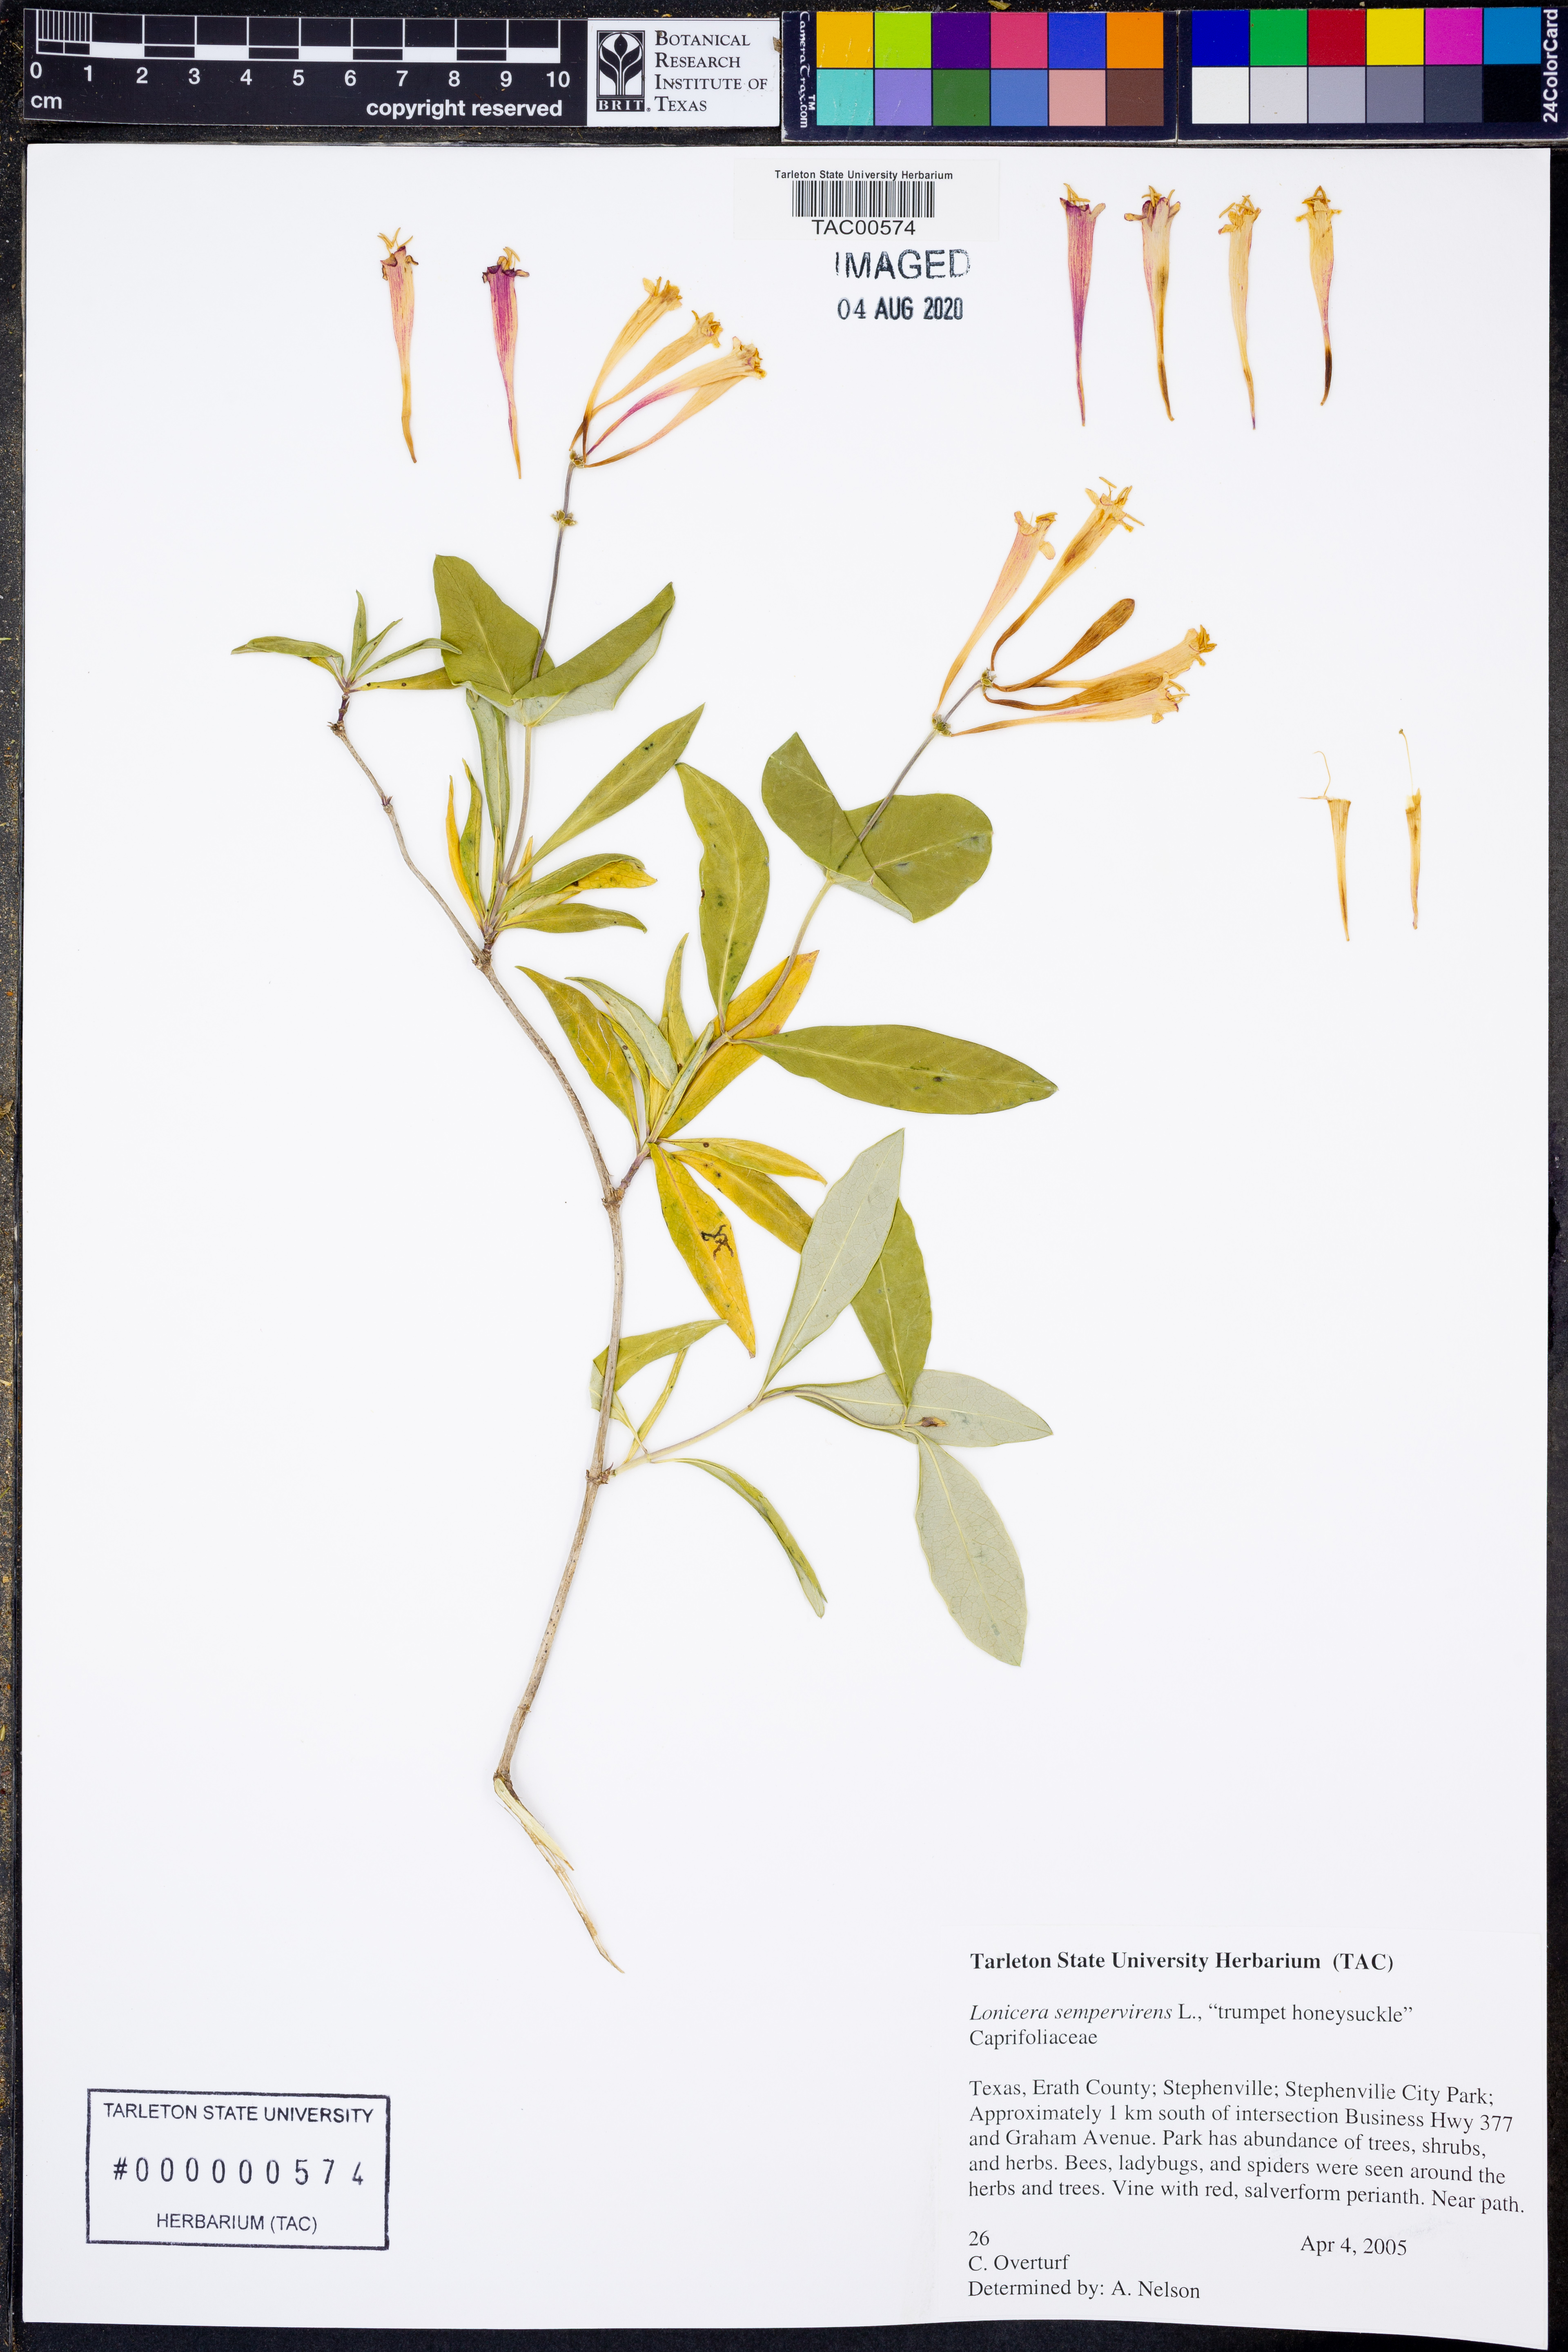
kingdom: Plantae
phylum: Tracheophyta
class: Magnoliopsida
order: Dipsacales
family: Caprifoliaceae
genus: Lonicera
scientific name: Lonicera sempervirens
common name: Coral honeysuckle
